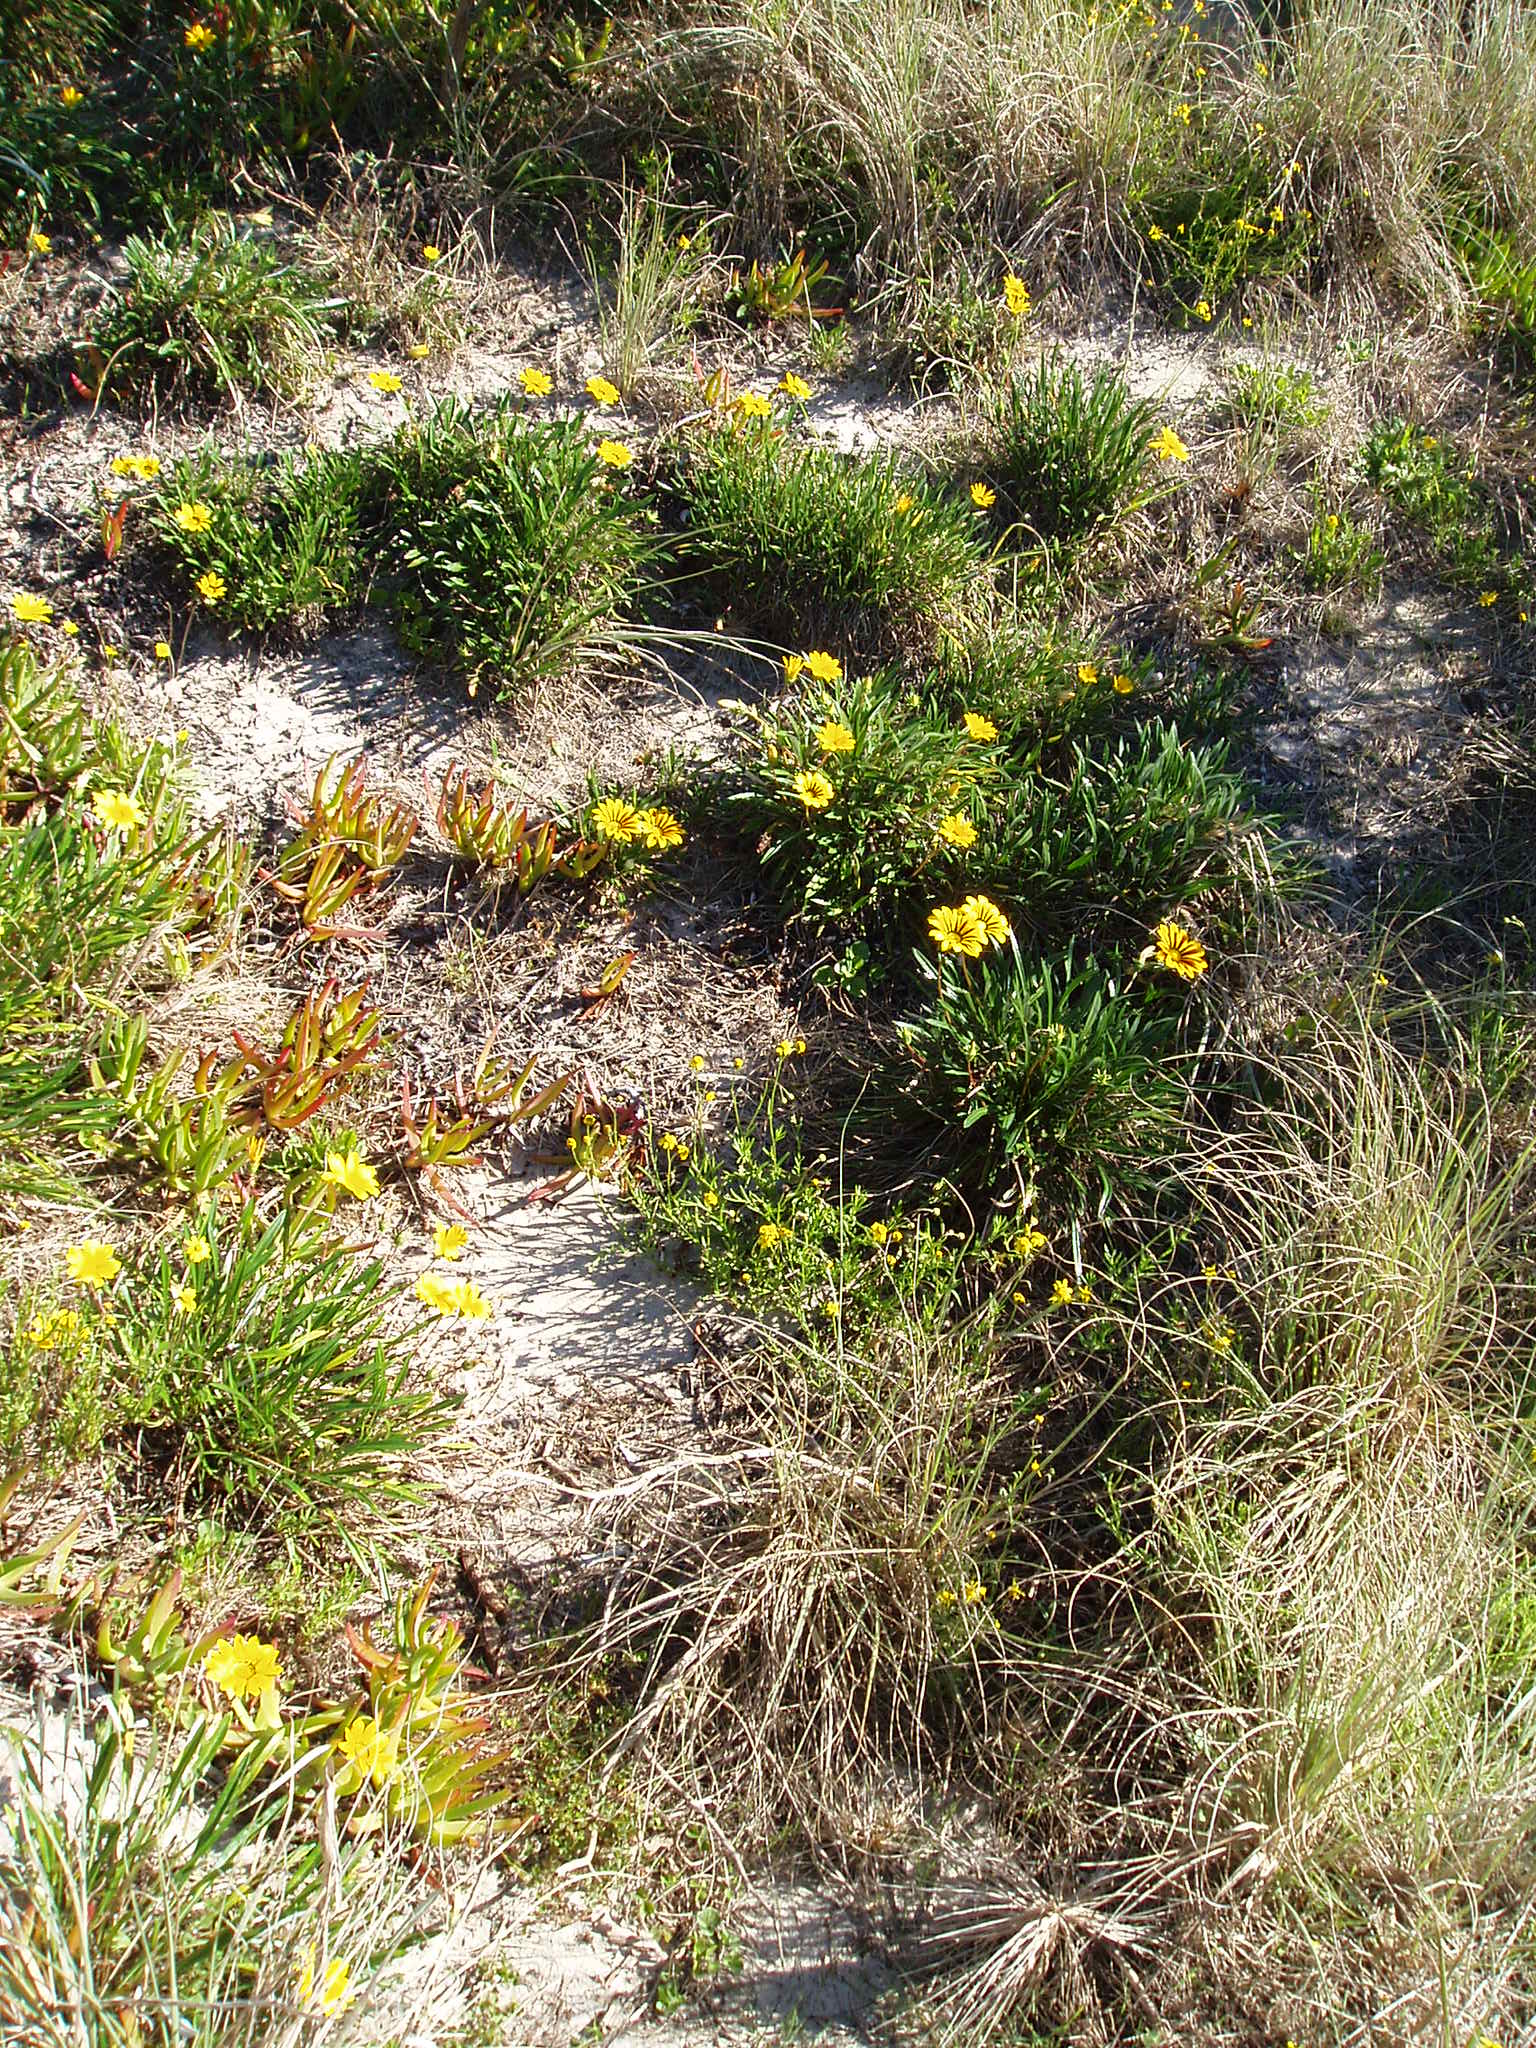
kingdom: Plantae
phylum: Tracheophyta
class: Magnoliopsida
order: Asterales
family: Asteraceae
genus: Gazania
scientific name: Gazania linearis
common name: Treasureflower
